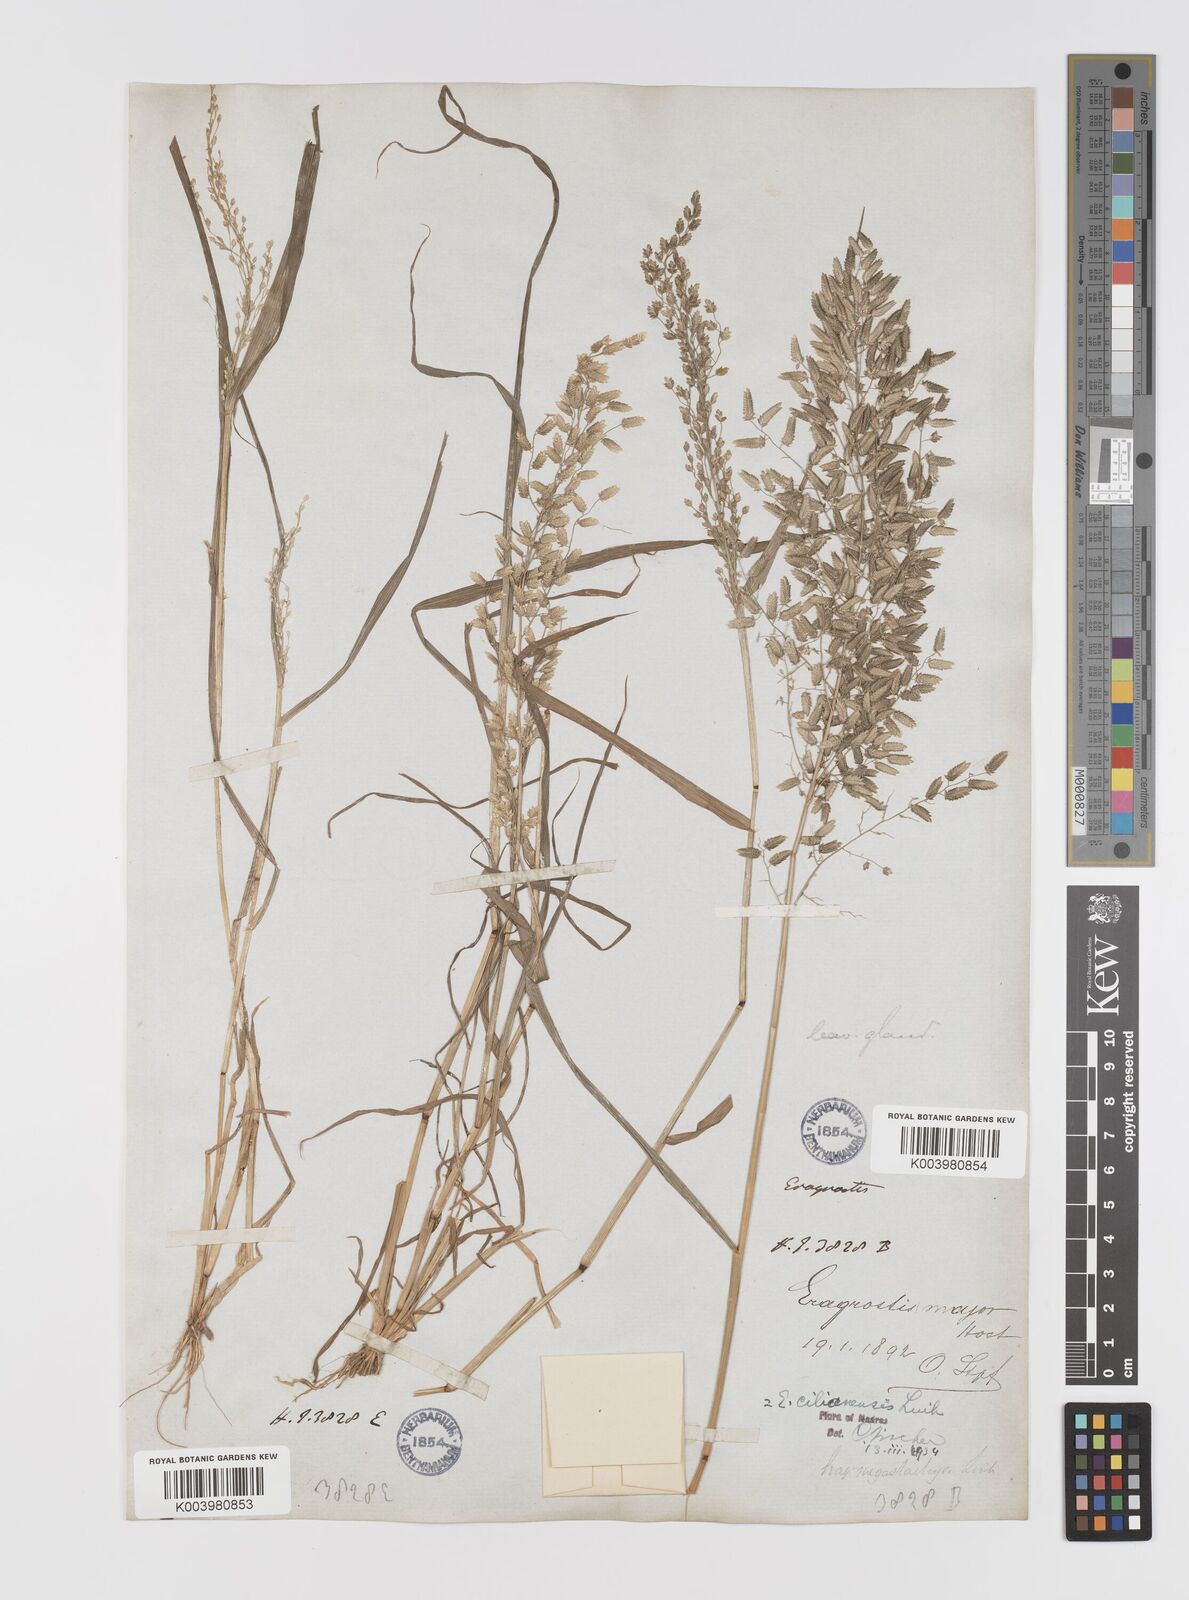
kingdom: Plantae
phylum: Tracheophyta
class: Liliopsida
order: Poales
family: Poaceae
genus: Eragrostis
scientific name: Eragrostis cilianensis
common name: Stinkgrass
